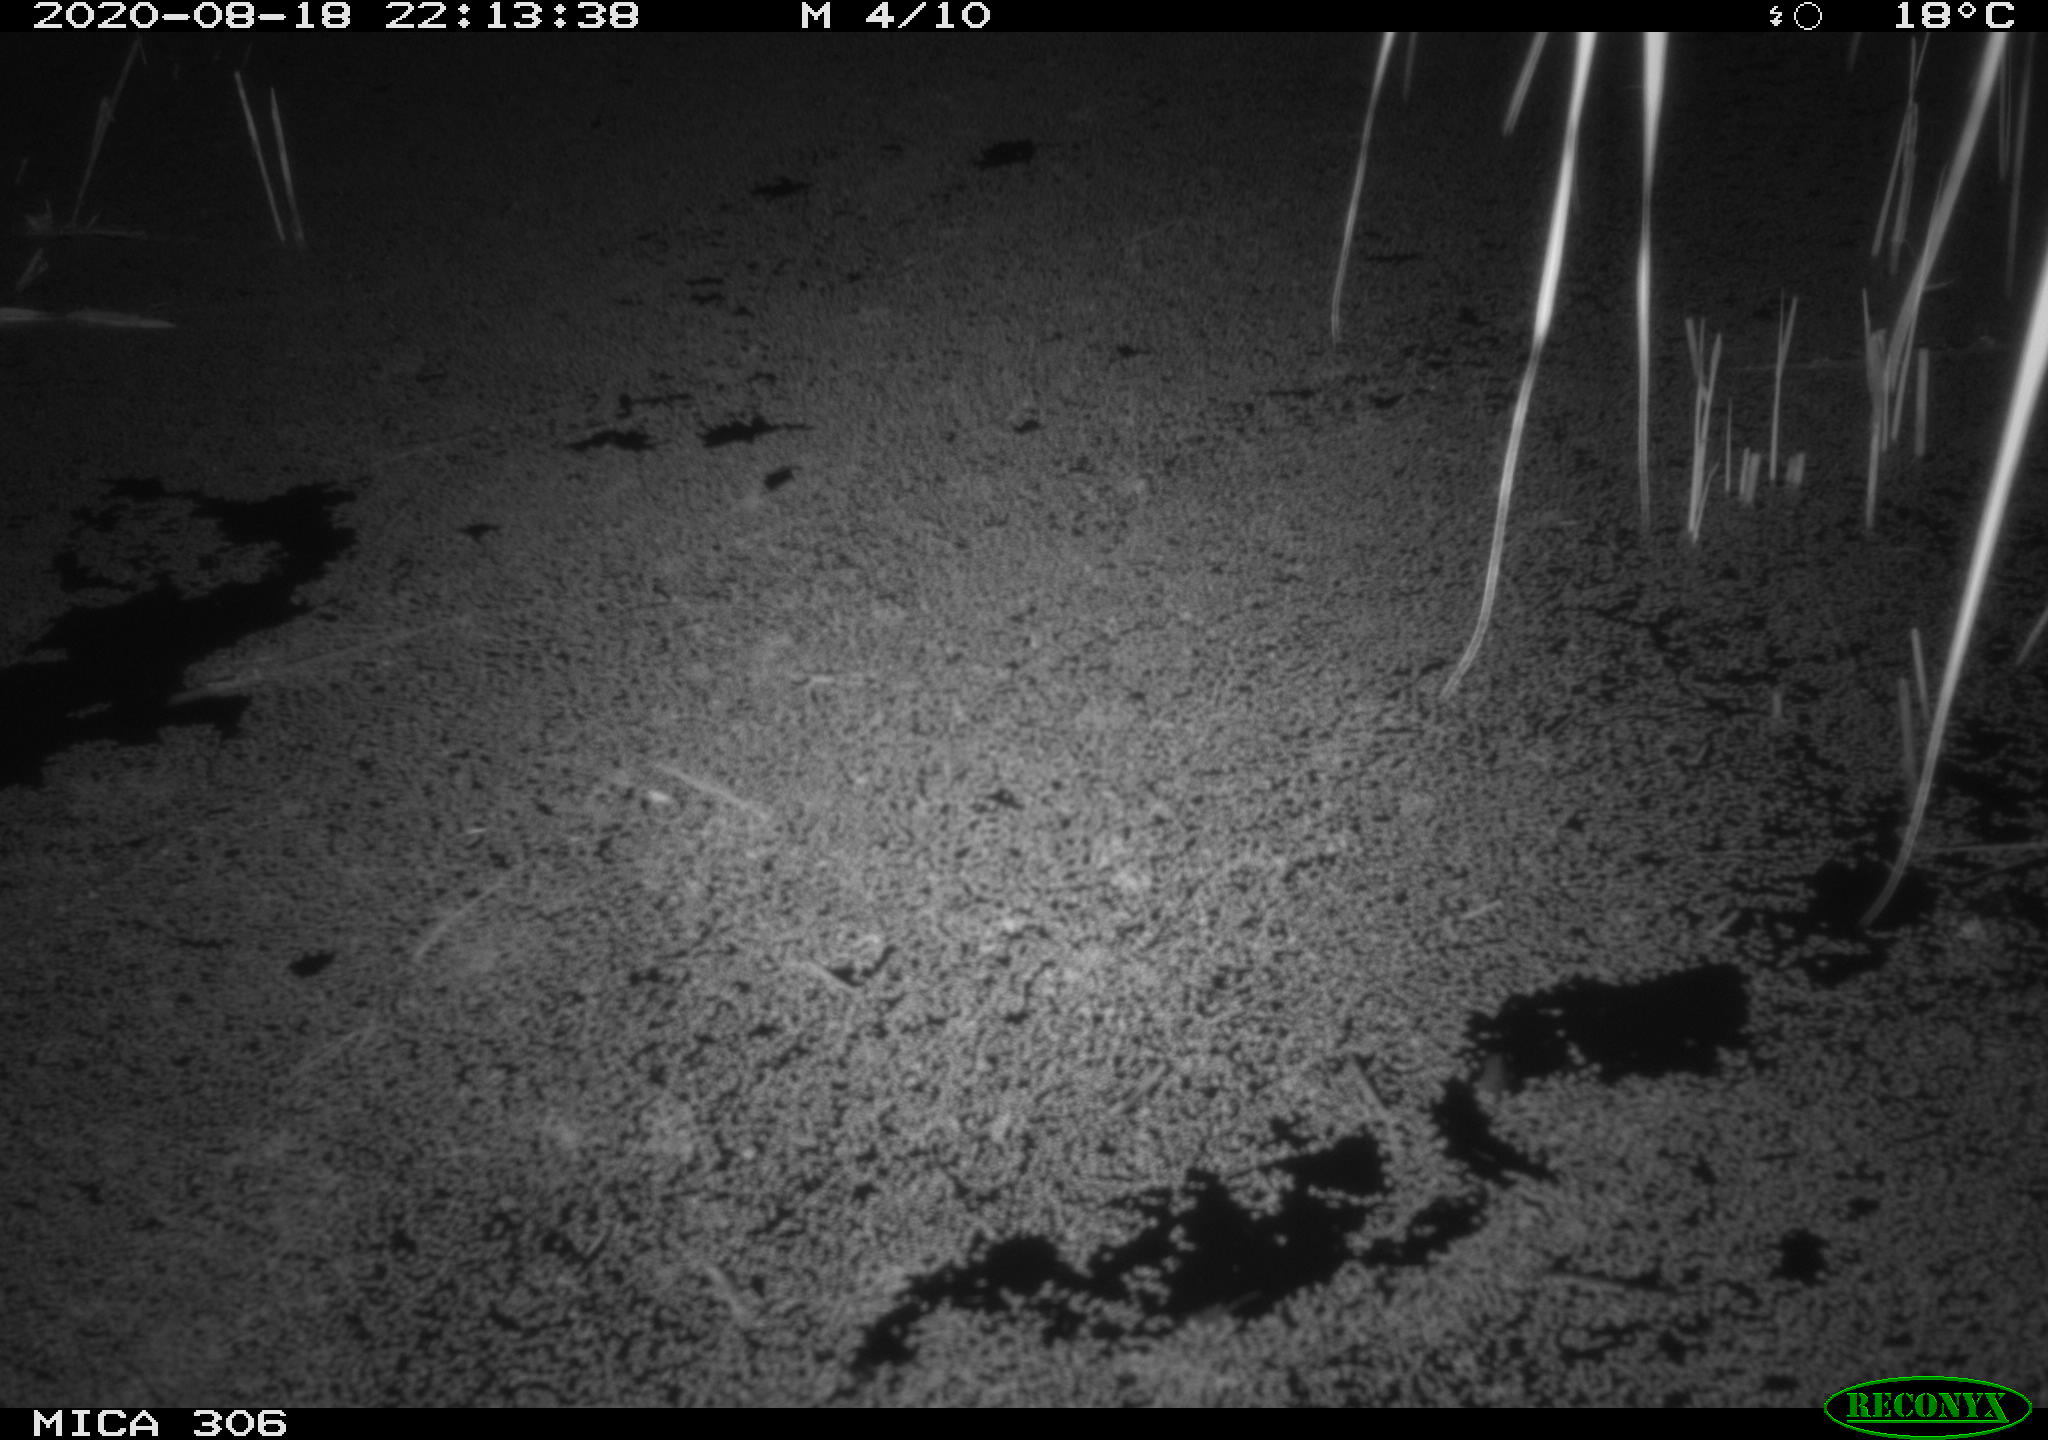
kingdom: Animalia
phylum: Chordata
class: Mammalia
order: Rodentia
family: Muridae
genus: Rattus
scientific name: Rattus norvegicus
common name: Brown rat
